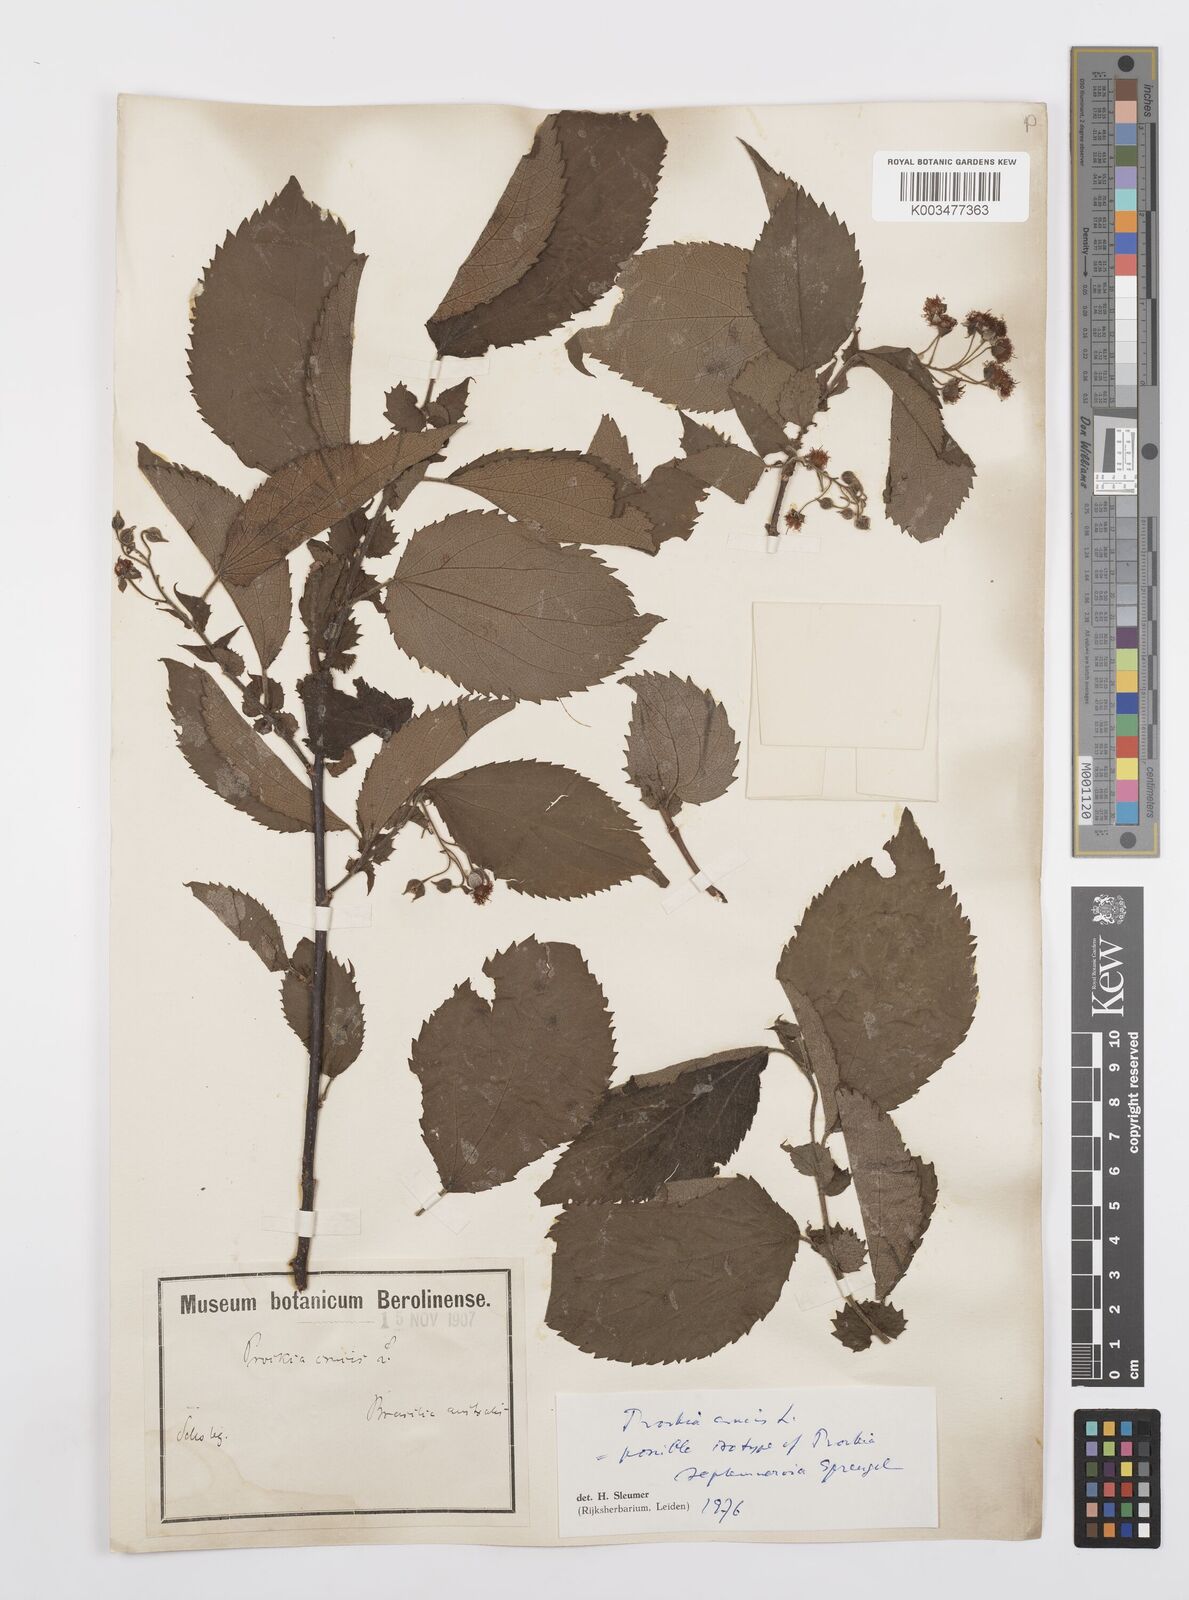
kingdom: Plantae
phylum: Tracheophyta
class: Magnoliopsida
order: Malpighiales
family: Salicaceae
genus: Prockia
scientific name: Prockia crucis
